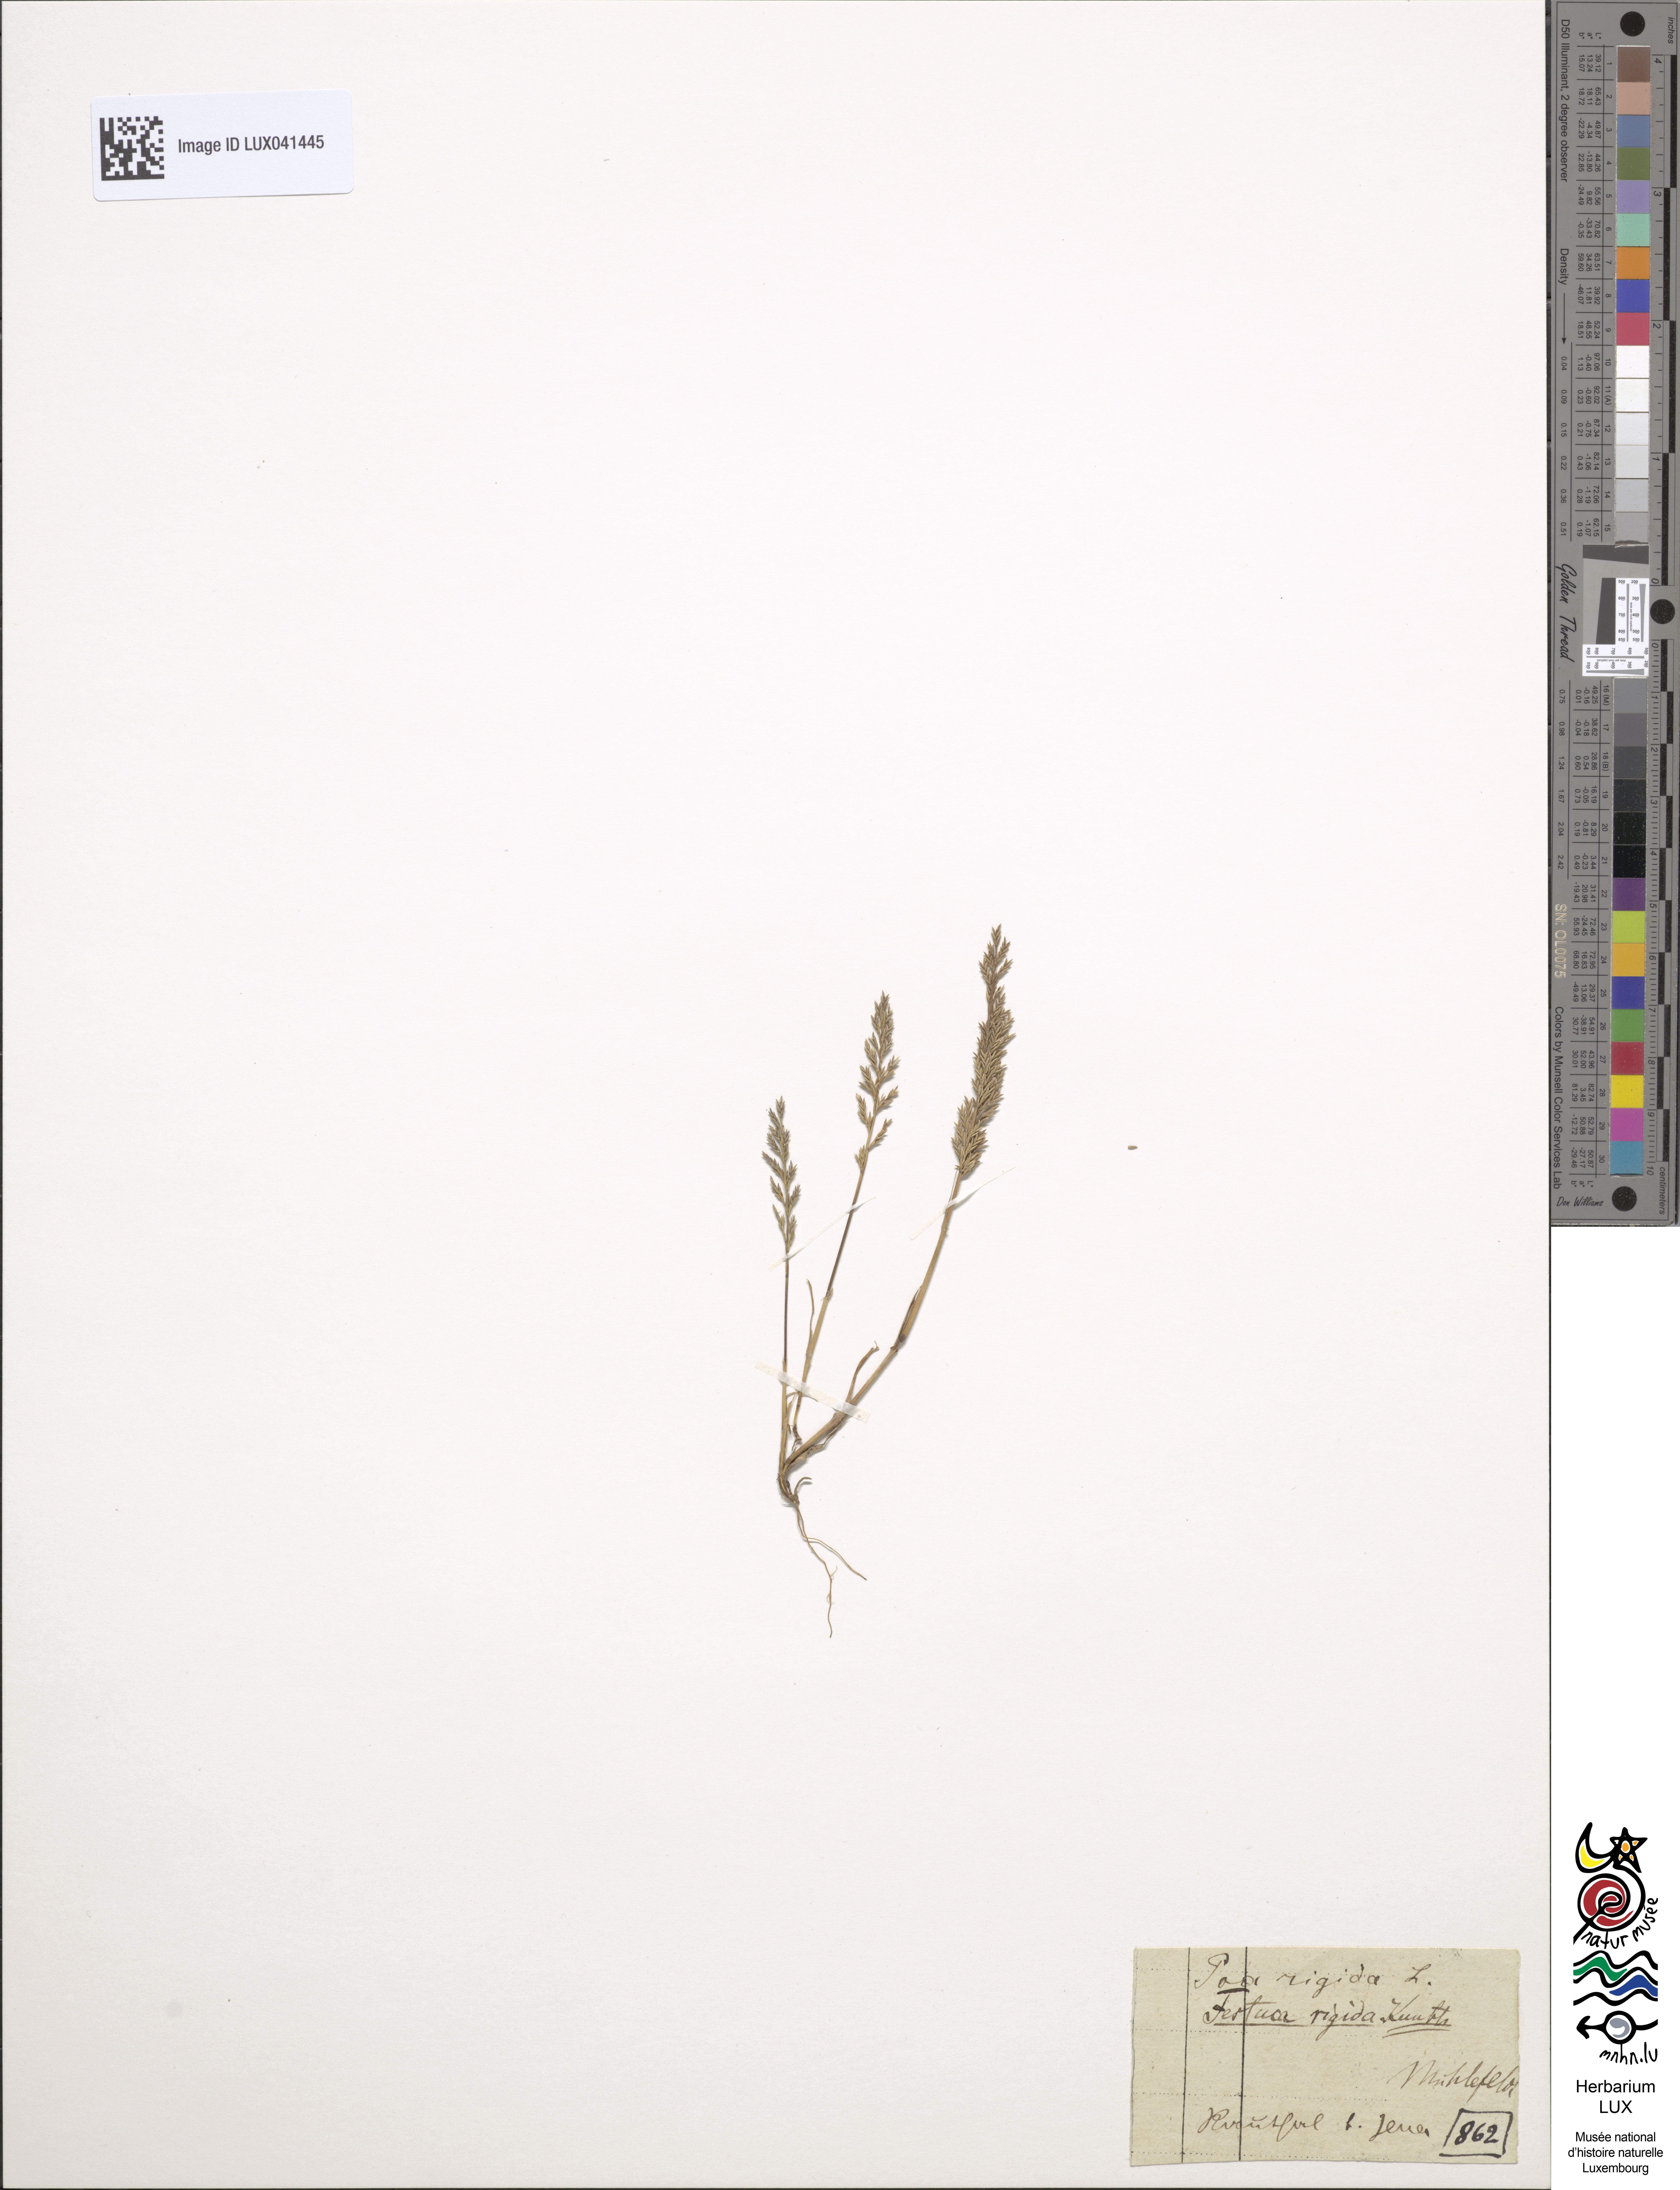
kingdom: Plantae
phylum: Tracheophyta
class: Liliopsida
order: Poales
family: Poaceae
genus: Catapodium
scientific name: Catapodium rigidum
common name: Fern-grass
